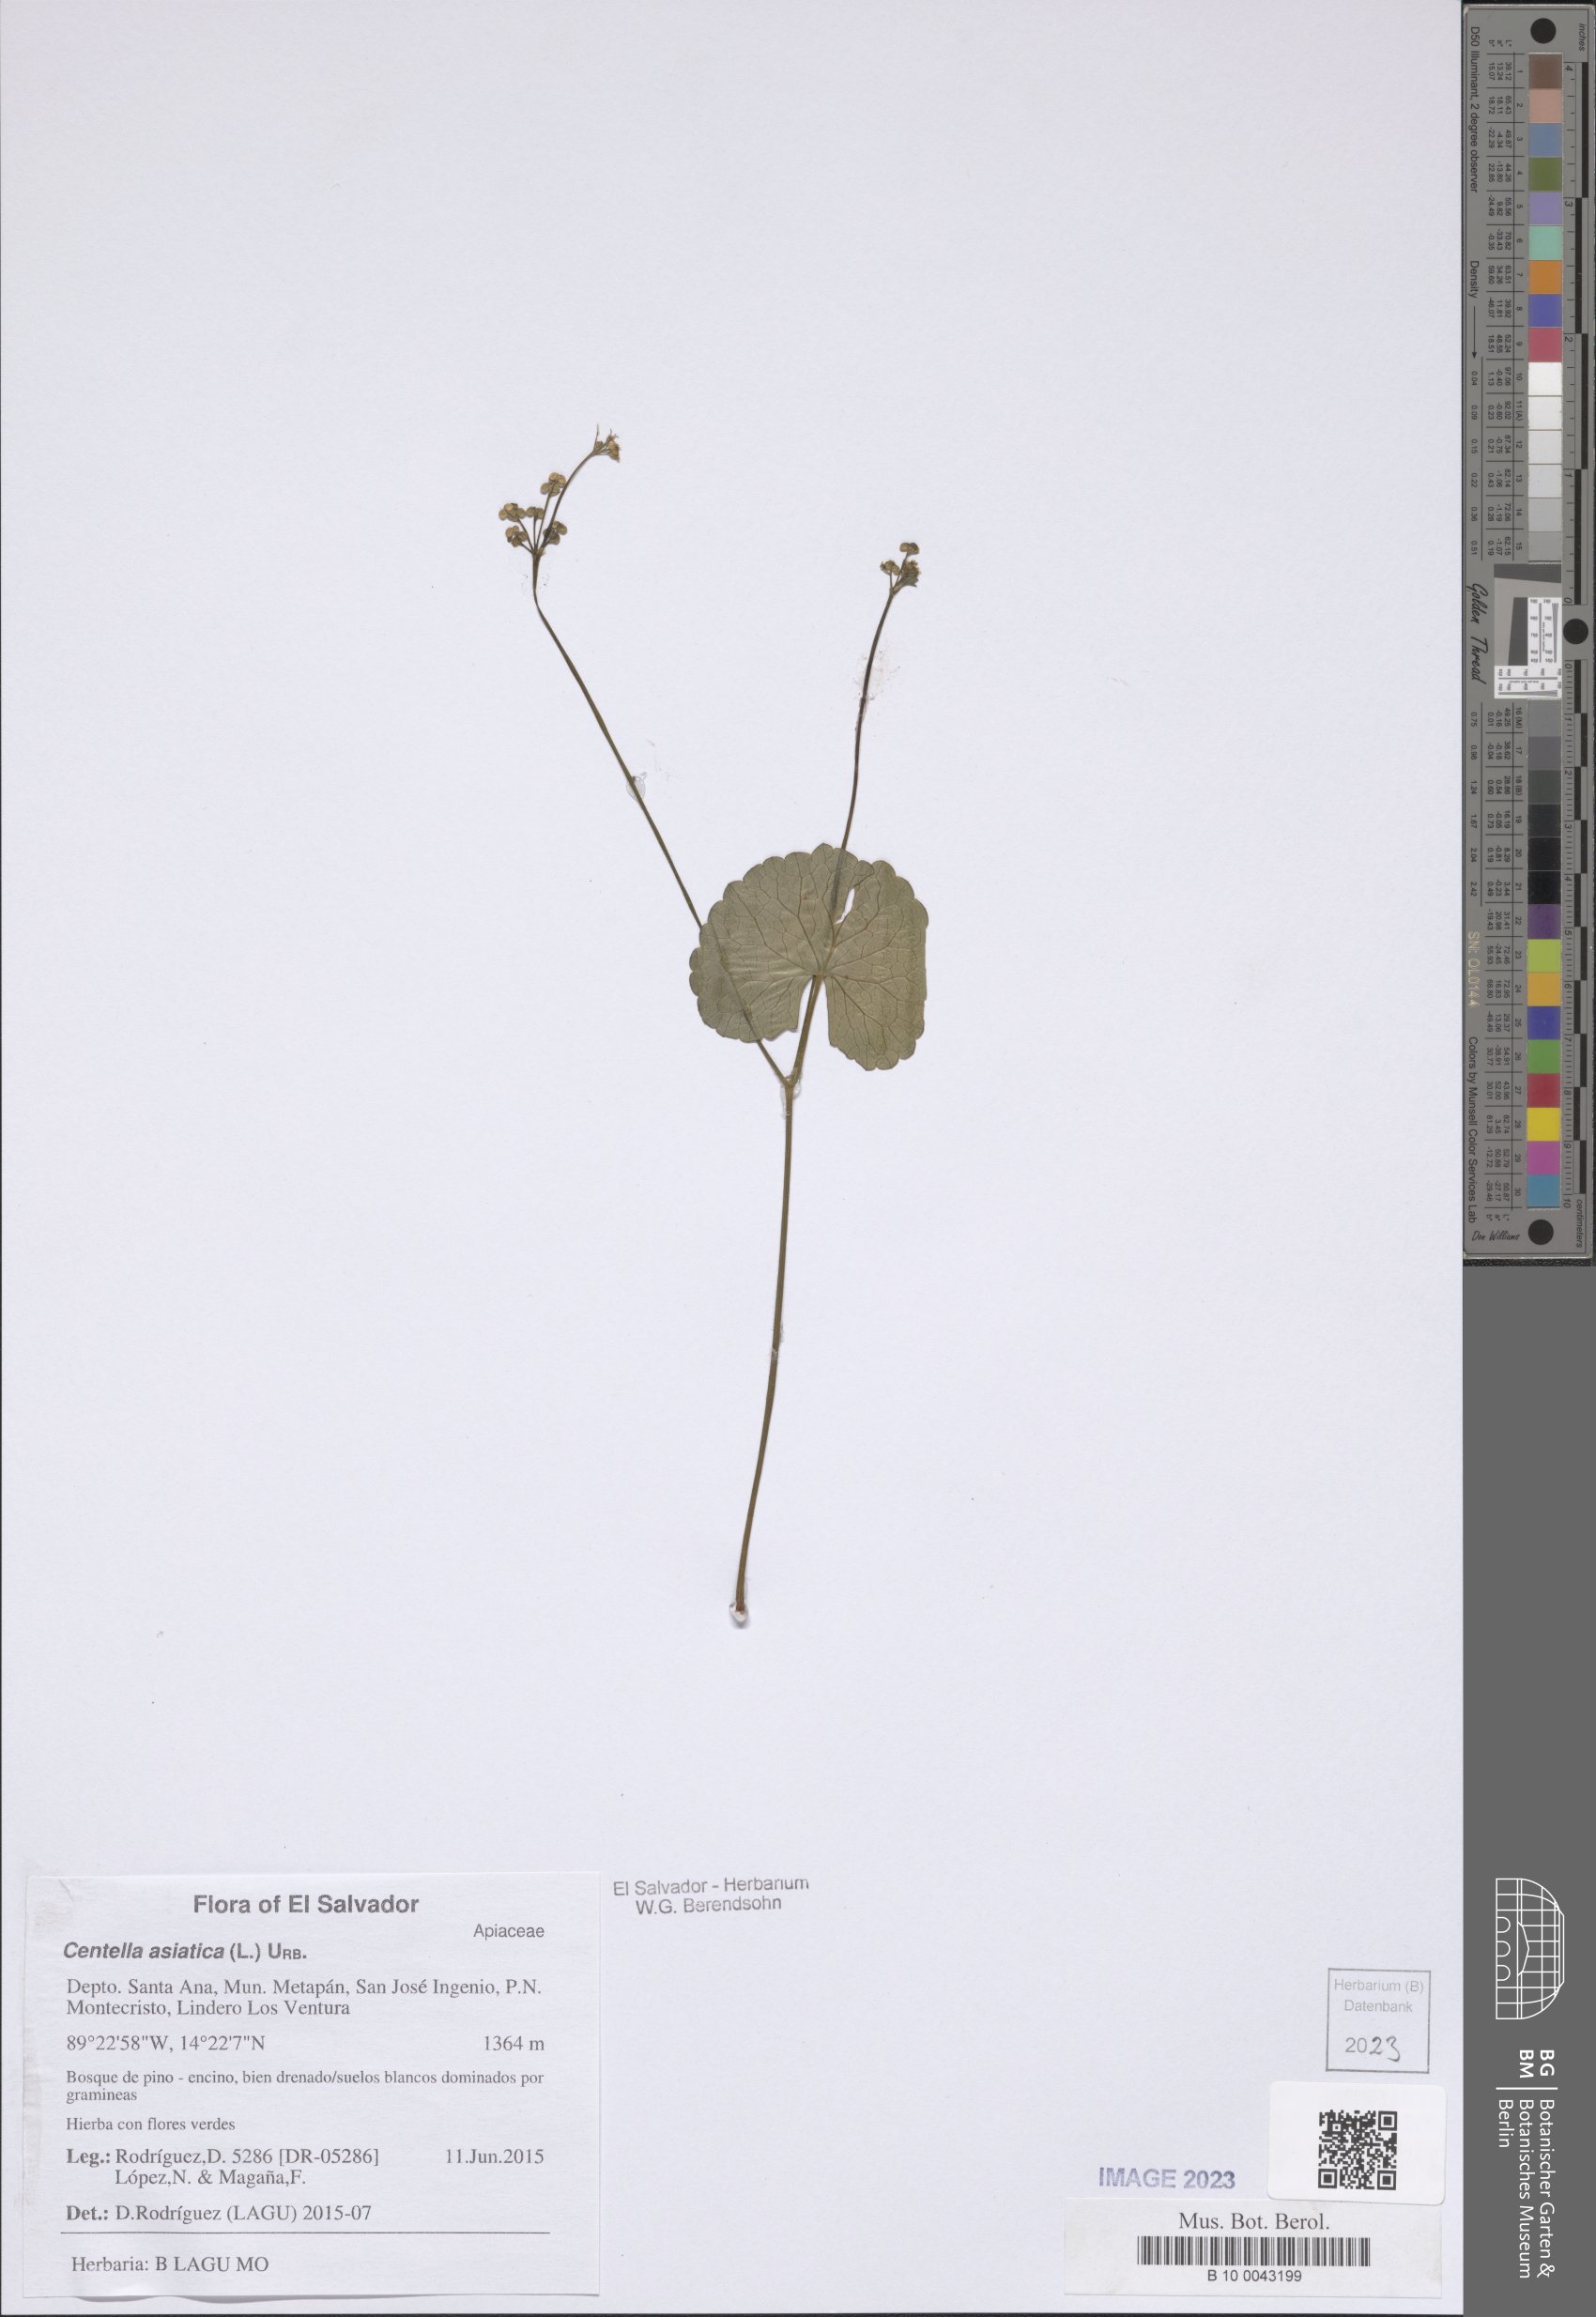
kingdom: Plantae
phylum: Tracheophyta
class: Magnoliopsida
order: Apiales
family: Apiaceae
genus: Centella
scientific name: Centella asiatica
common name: Spadeleaf
